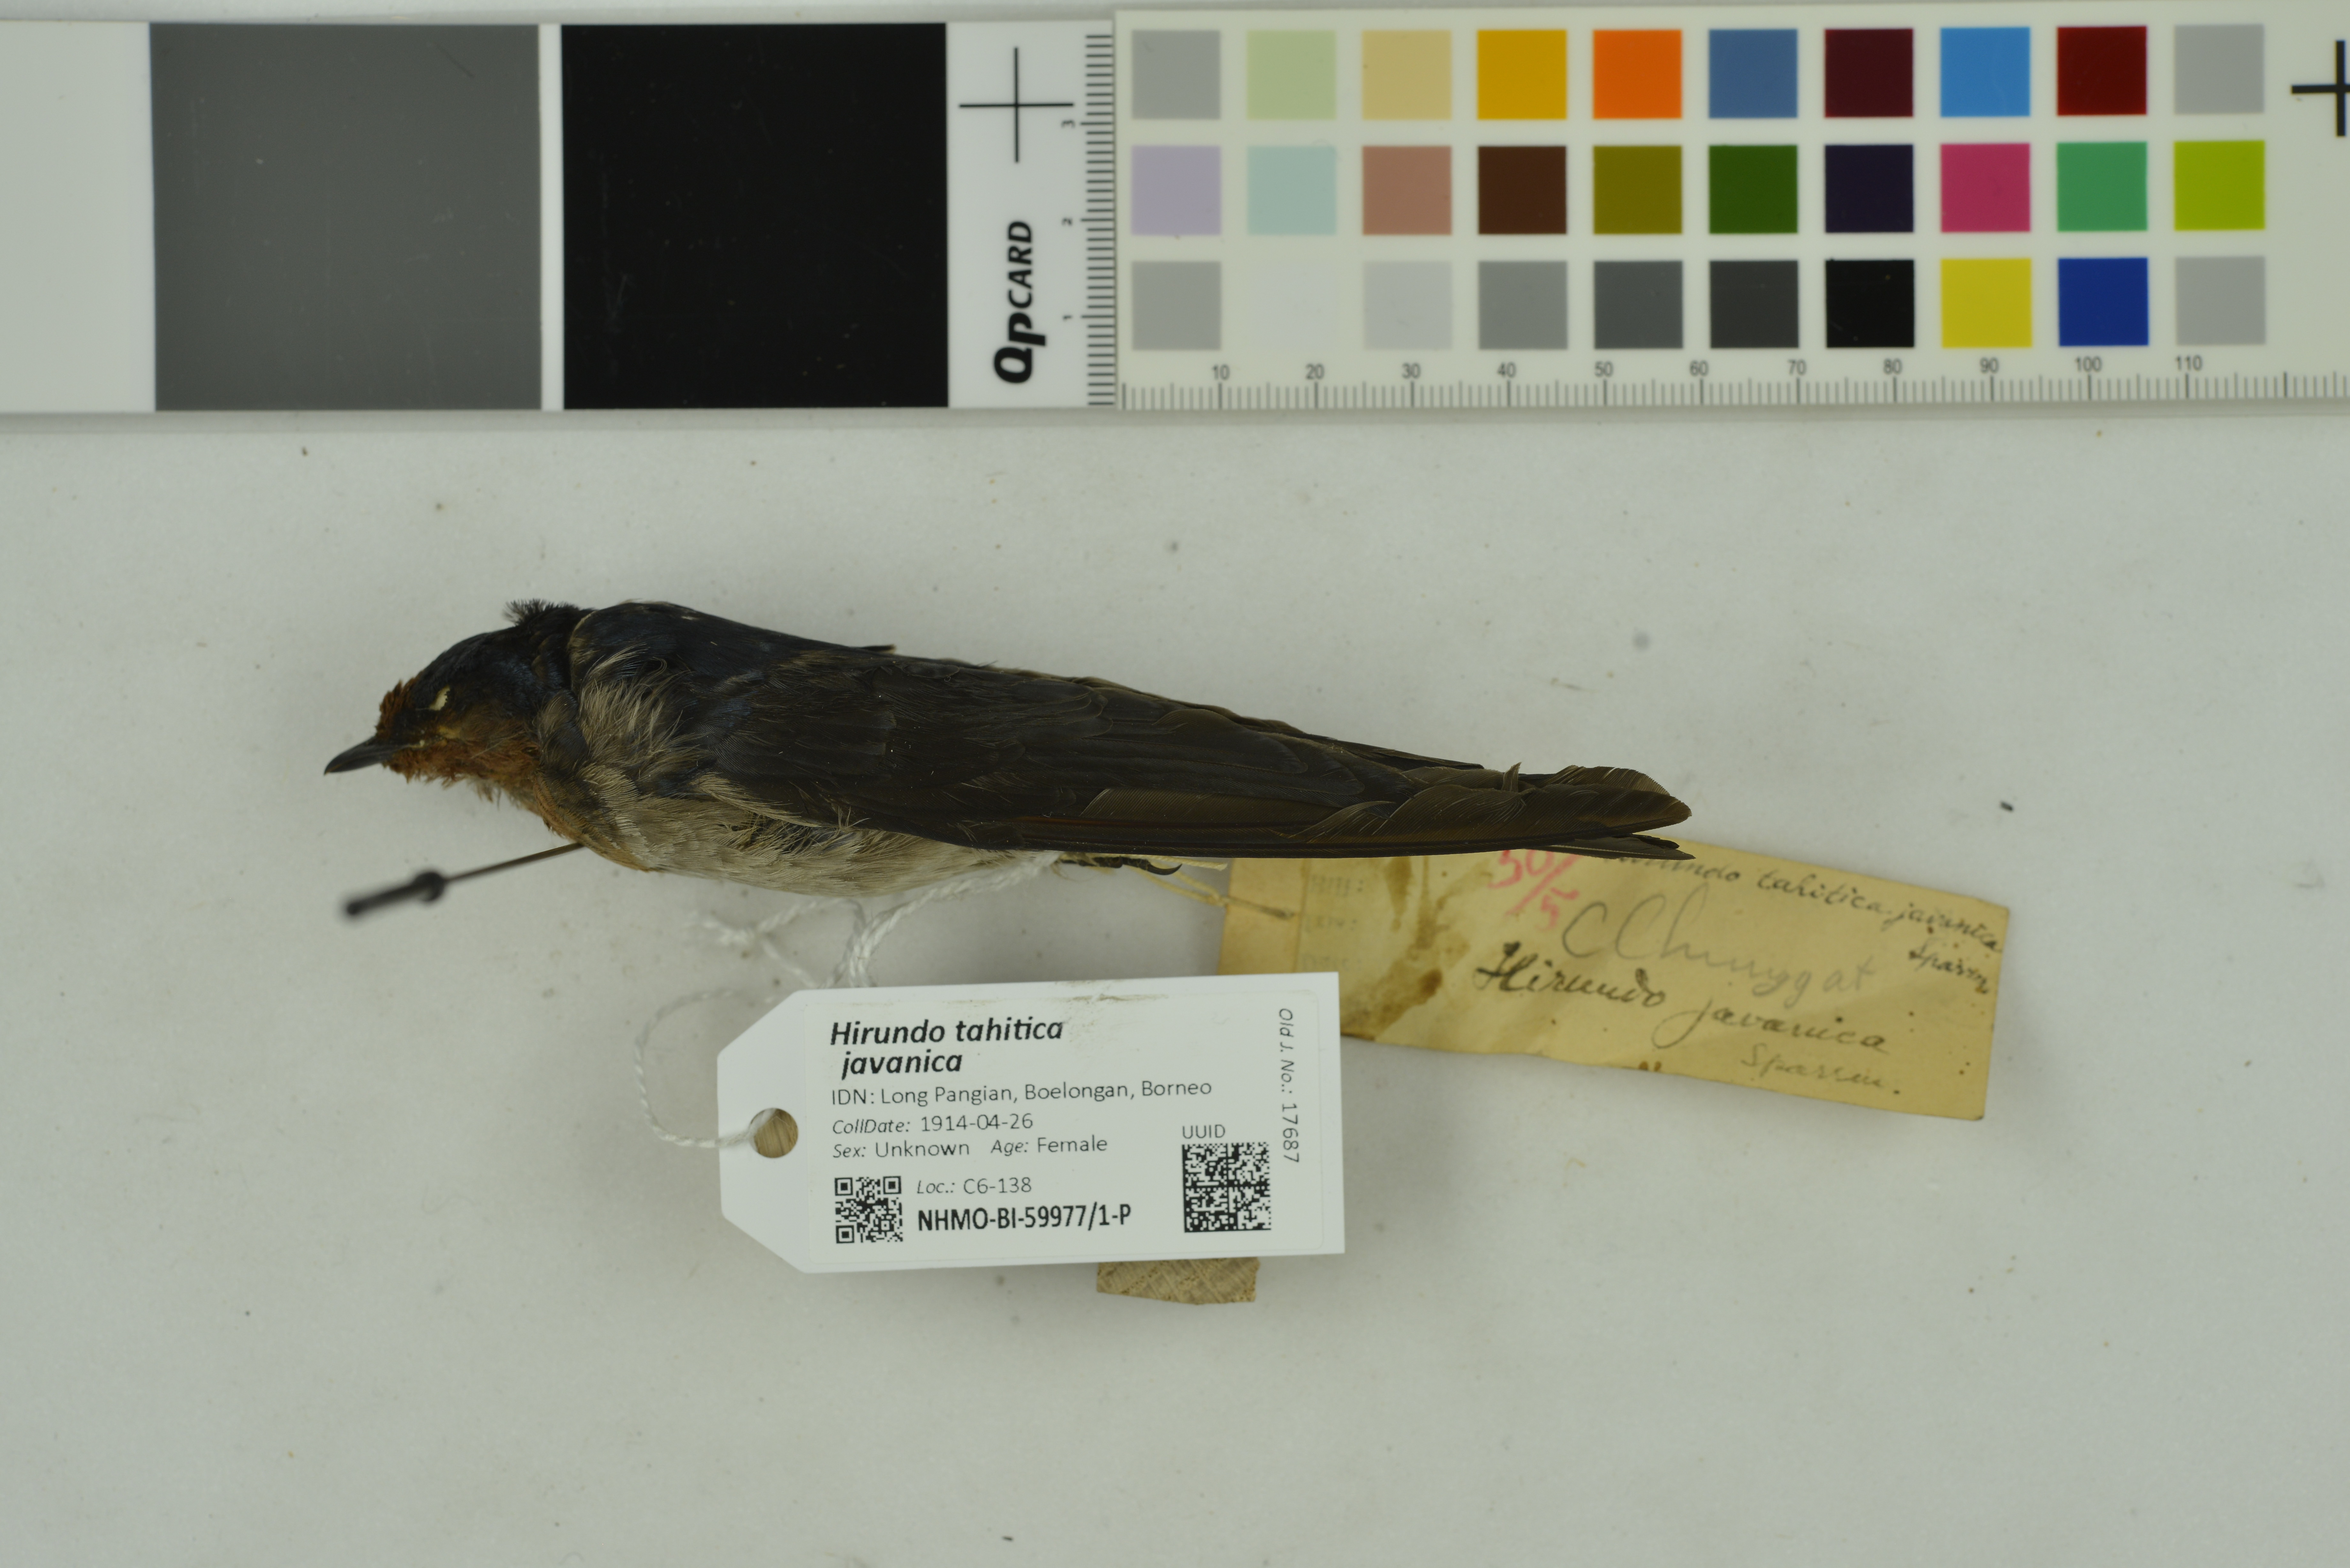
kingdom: Animalia
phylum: Chordata
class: Aves
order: Passeriformes
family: Hirundinidae
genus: Hirundo
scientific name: Hirundo tahitica
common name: Pacific swallow
